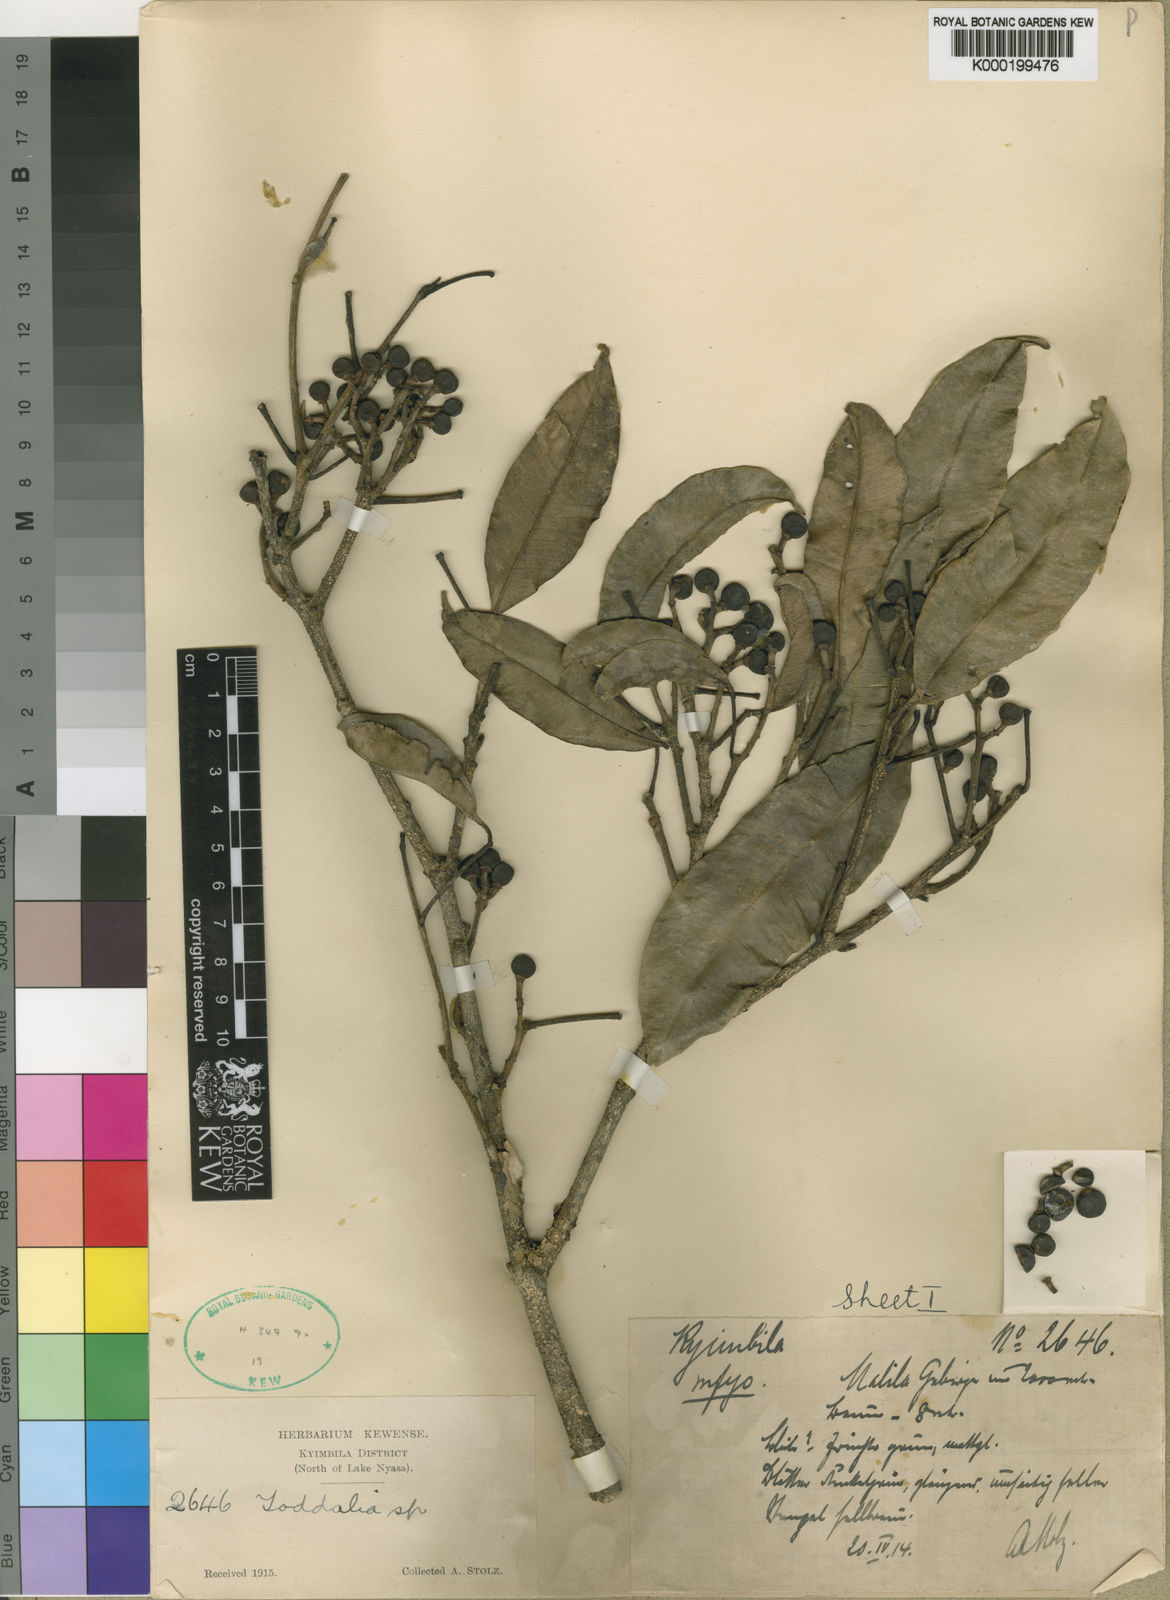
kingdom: Plantae
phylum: Tracheophyta
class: Magnoliopsida
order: Sapindales
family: Rutaceae
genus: Vepris
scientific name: Vepris stolzii
